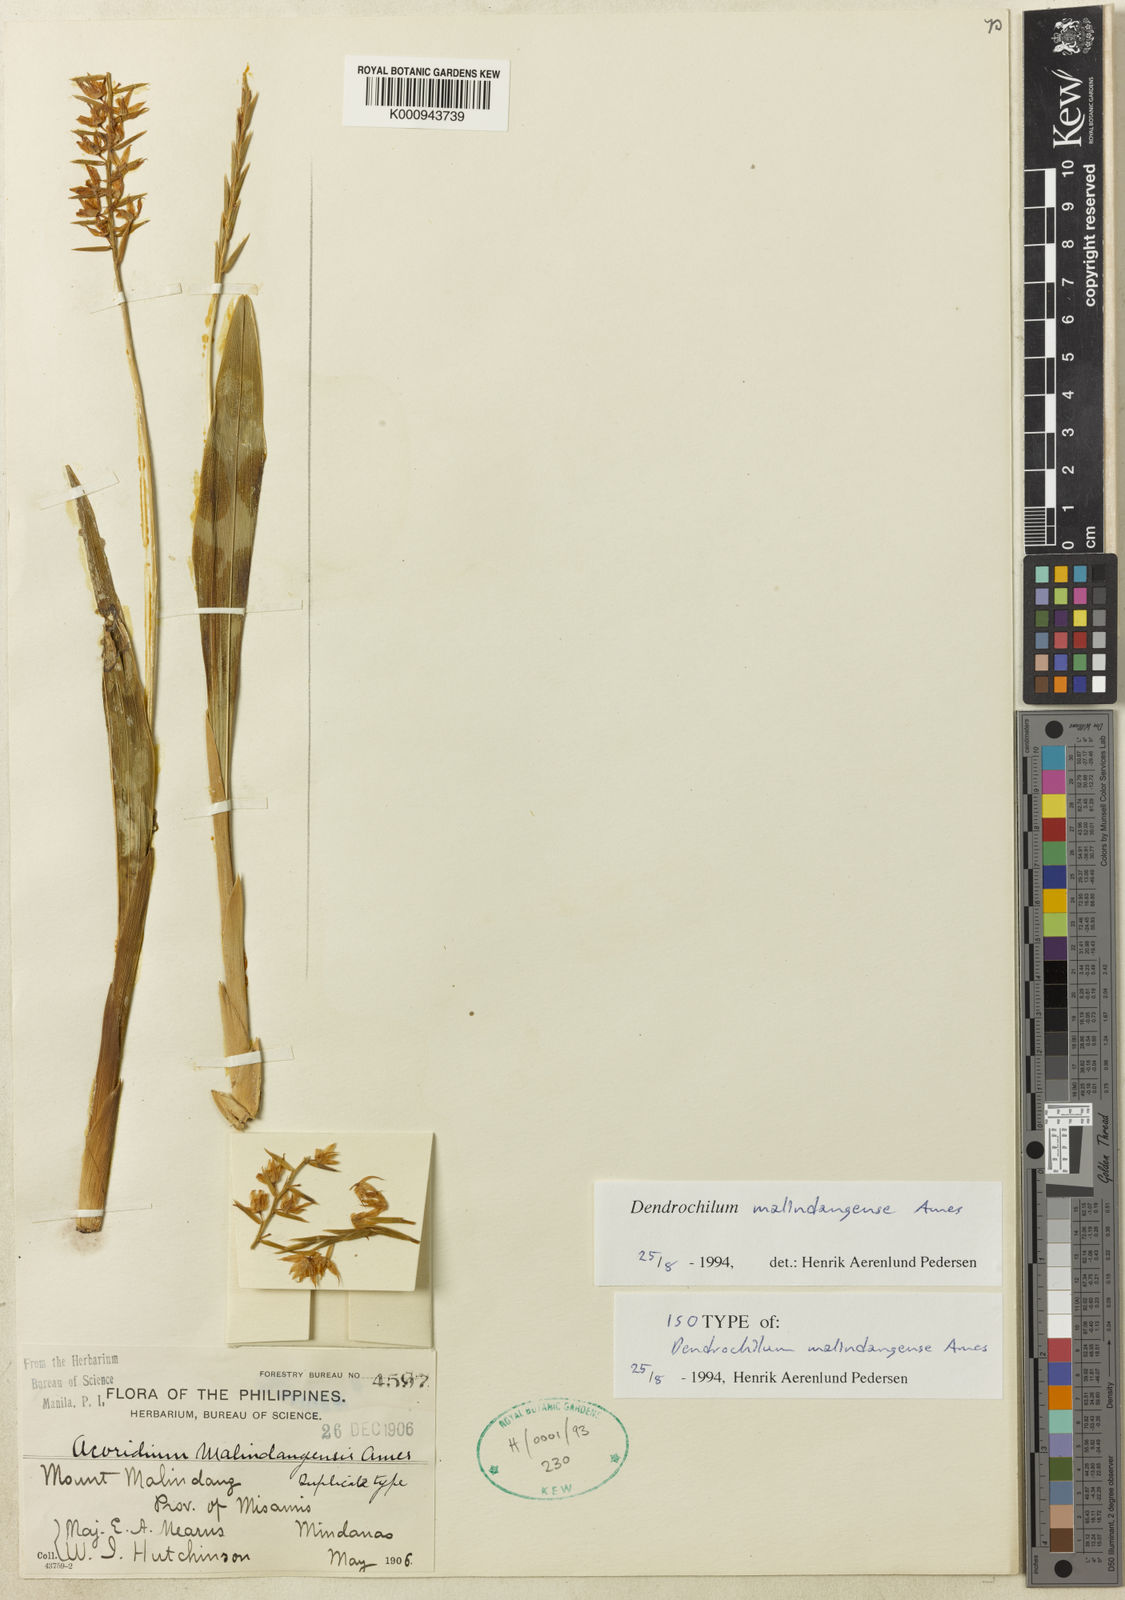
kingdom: Plantae
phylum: Tracheophyta
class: Liliopsida
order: Asparagales
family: Orchidaceae
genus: Coelogyne
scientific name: Coelogyne malindangensis
